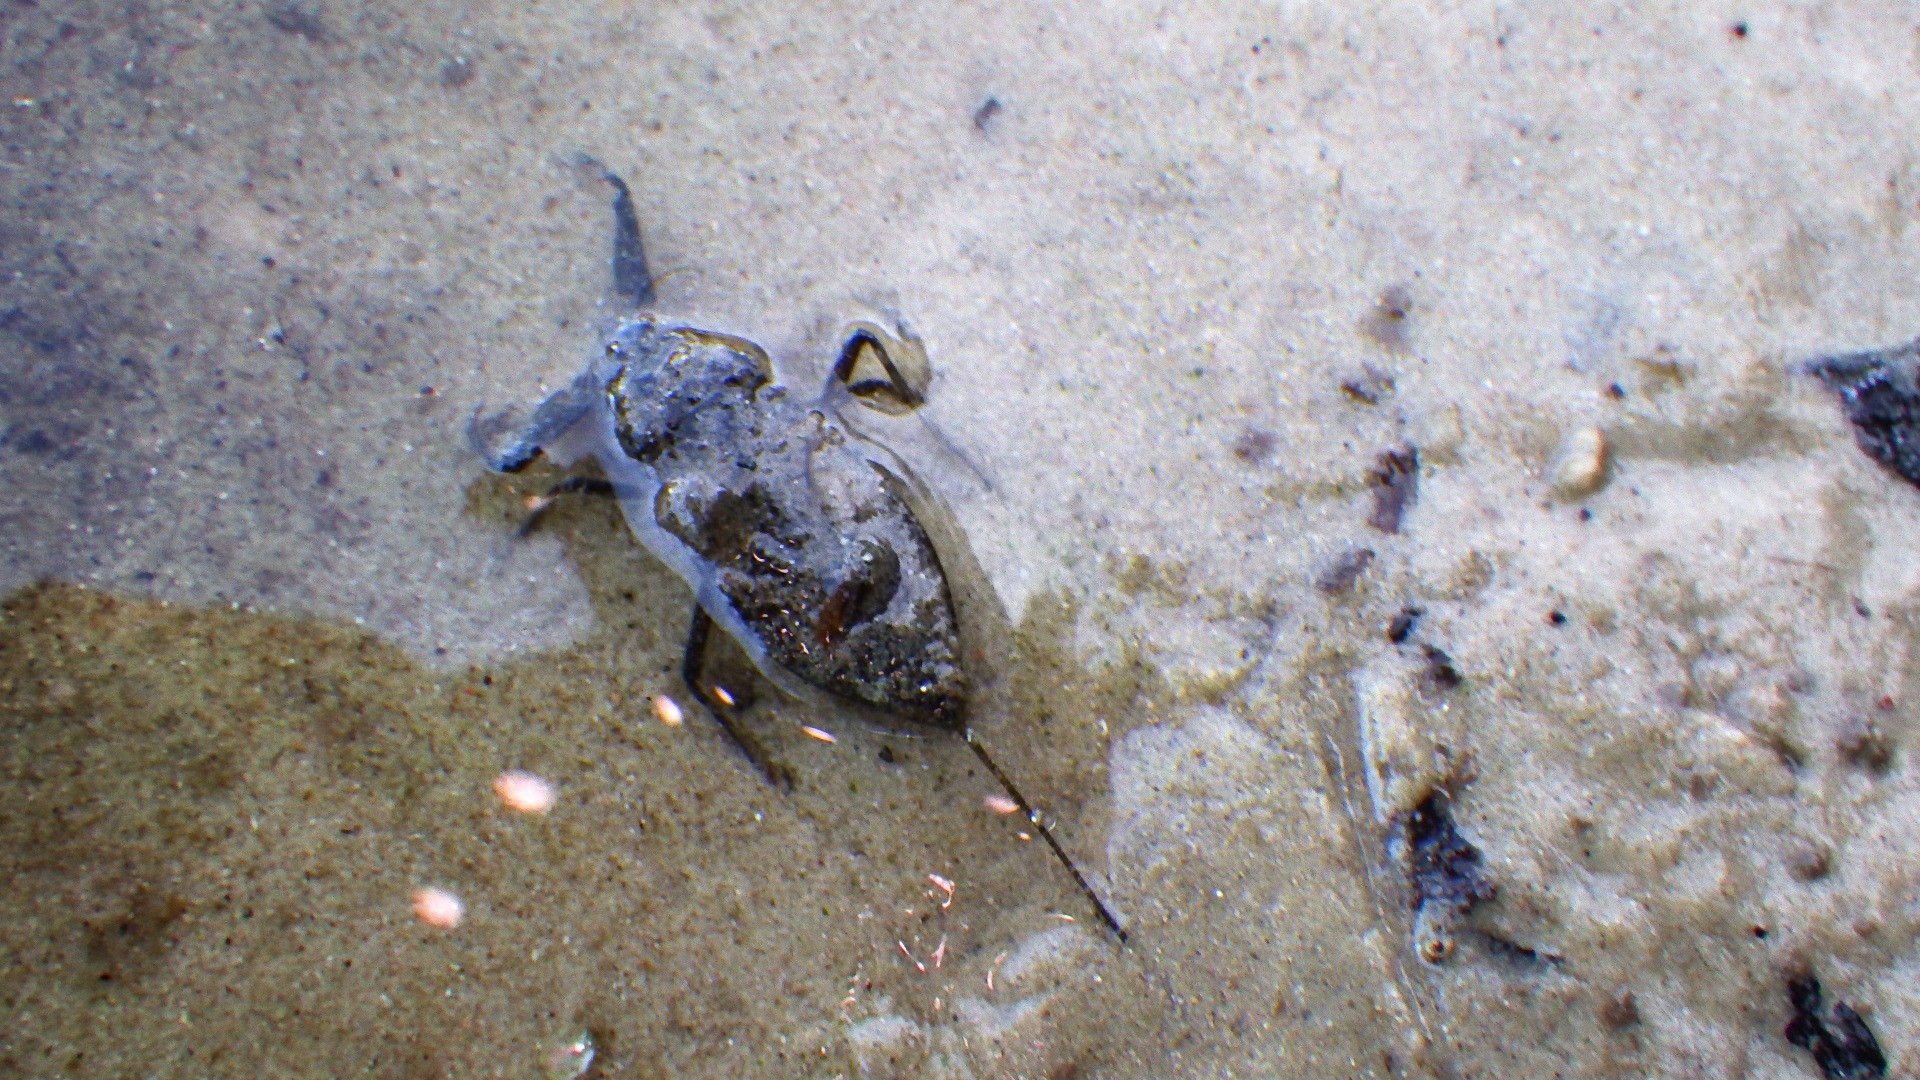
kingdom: Animalia
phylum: Arthropoda
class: Insecta
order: Hemiptera
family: Nepidae
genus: Nepa
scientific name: Nepa cinerea
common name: Skorpiontæge
